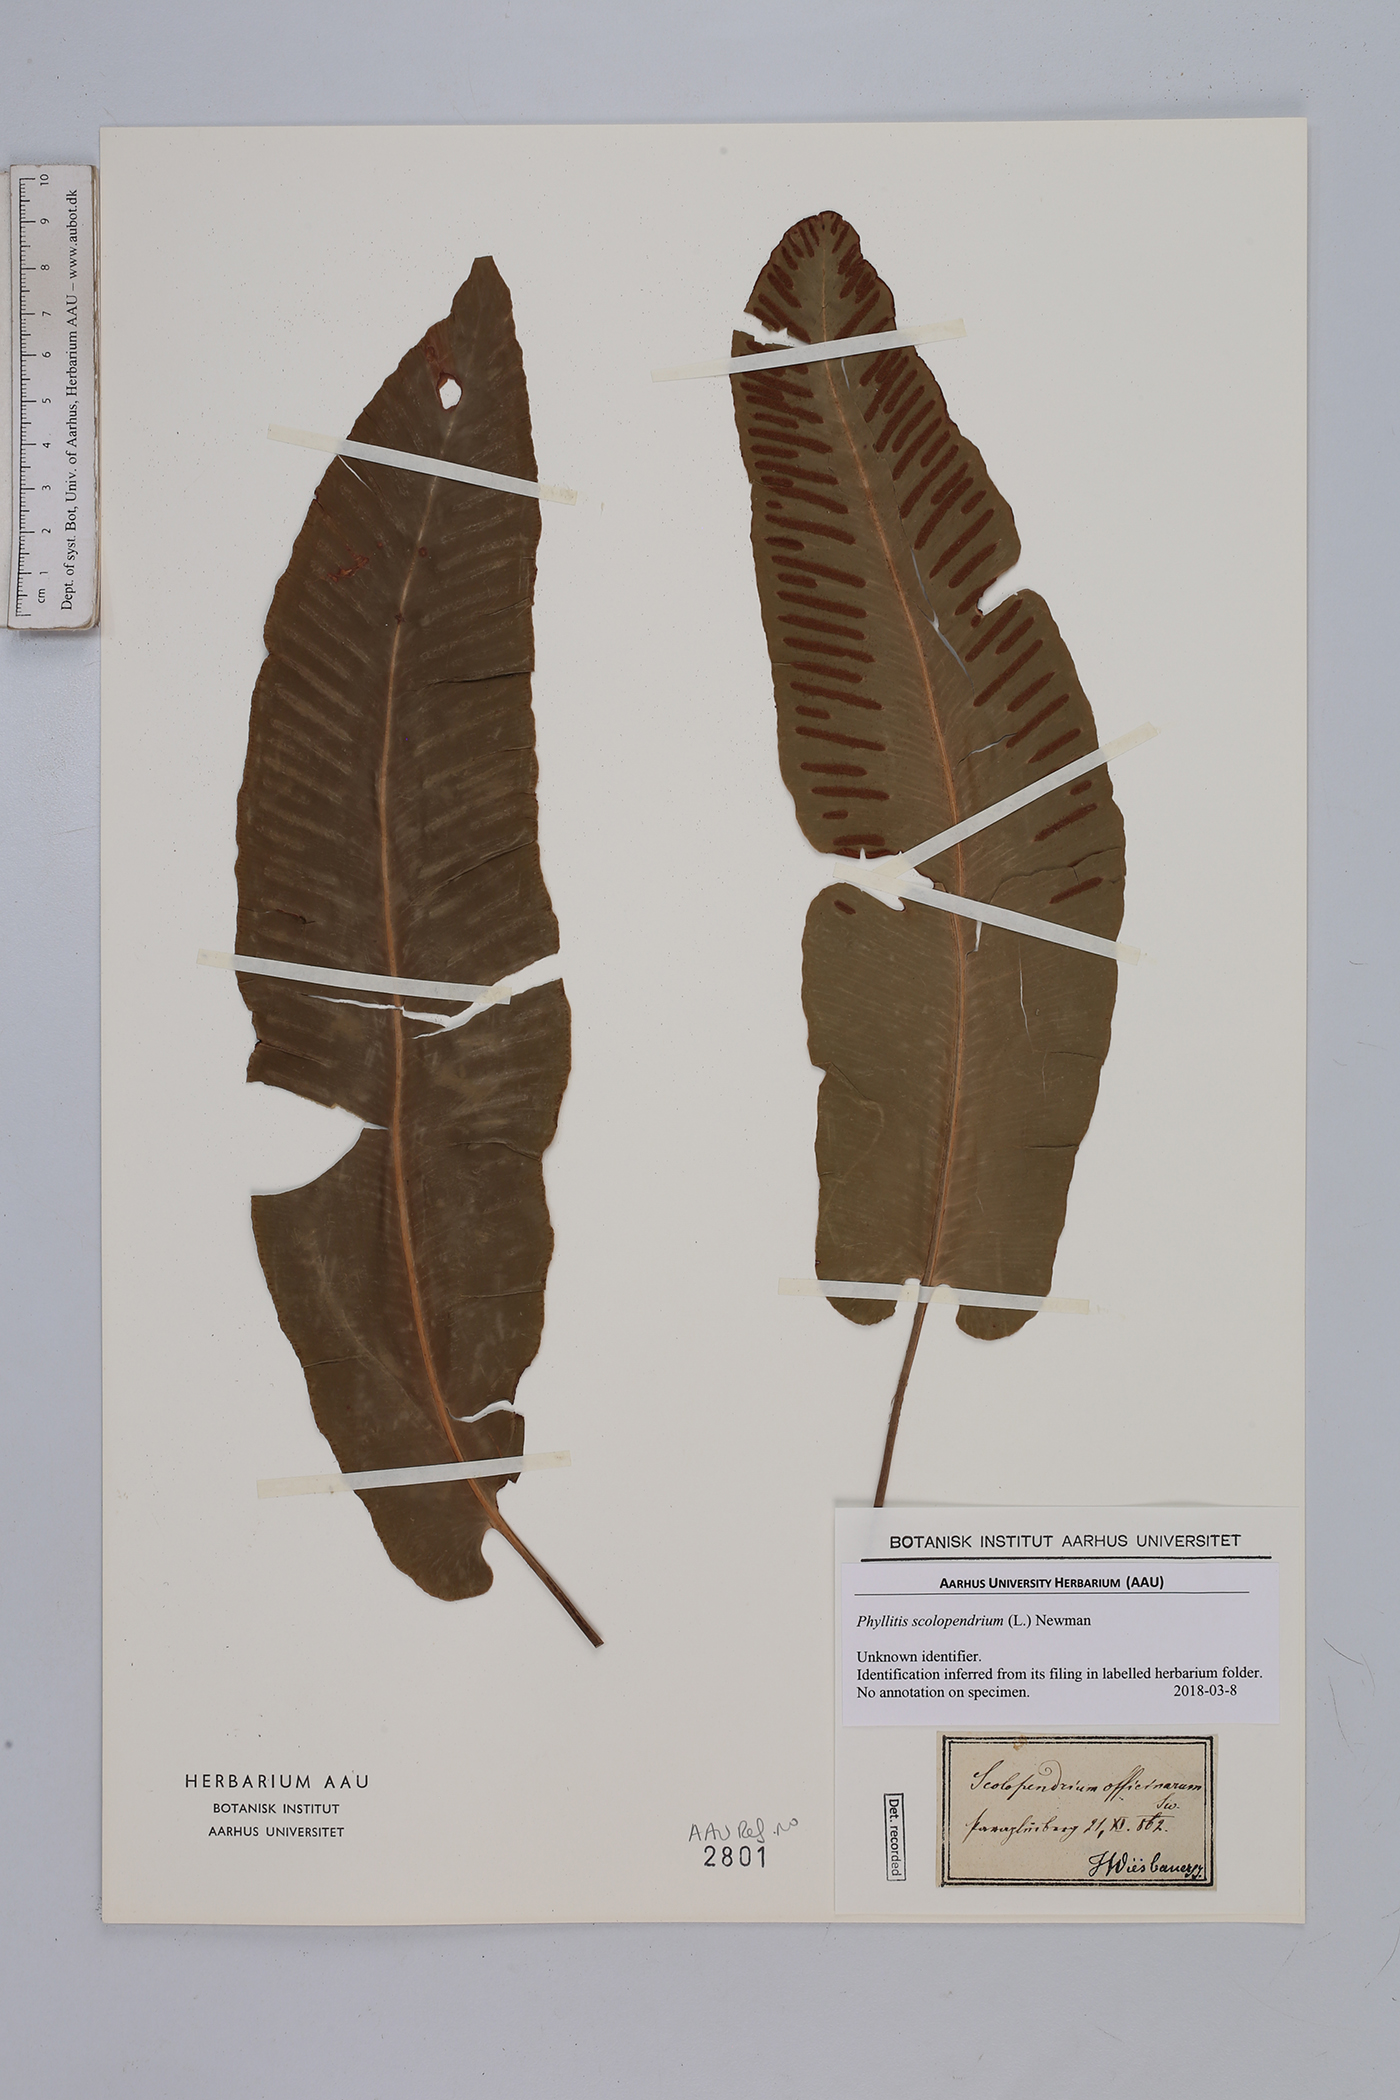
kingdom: Plantae
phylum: Tracheophyta
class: Polypodiopsida
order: Polypodiales
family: Aspleniaceae
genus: Asplenium
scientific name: Asplenium scolopendrium
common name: Hart's-tongue fern
